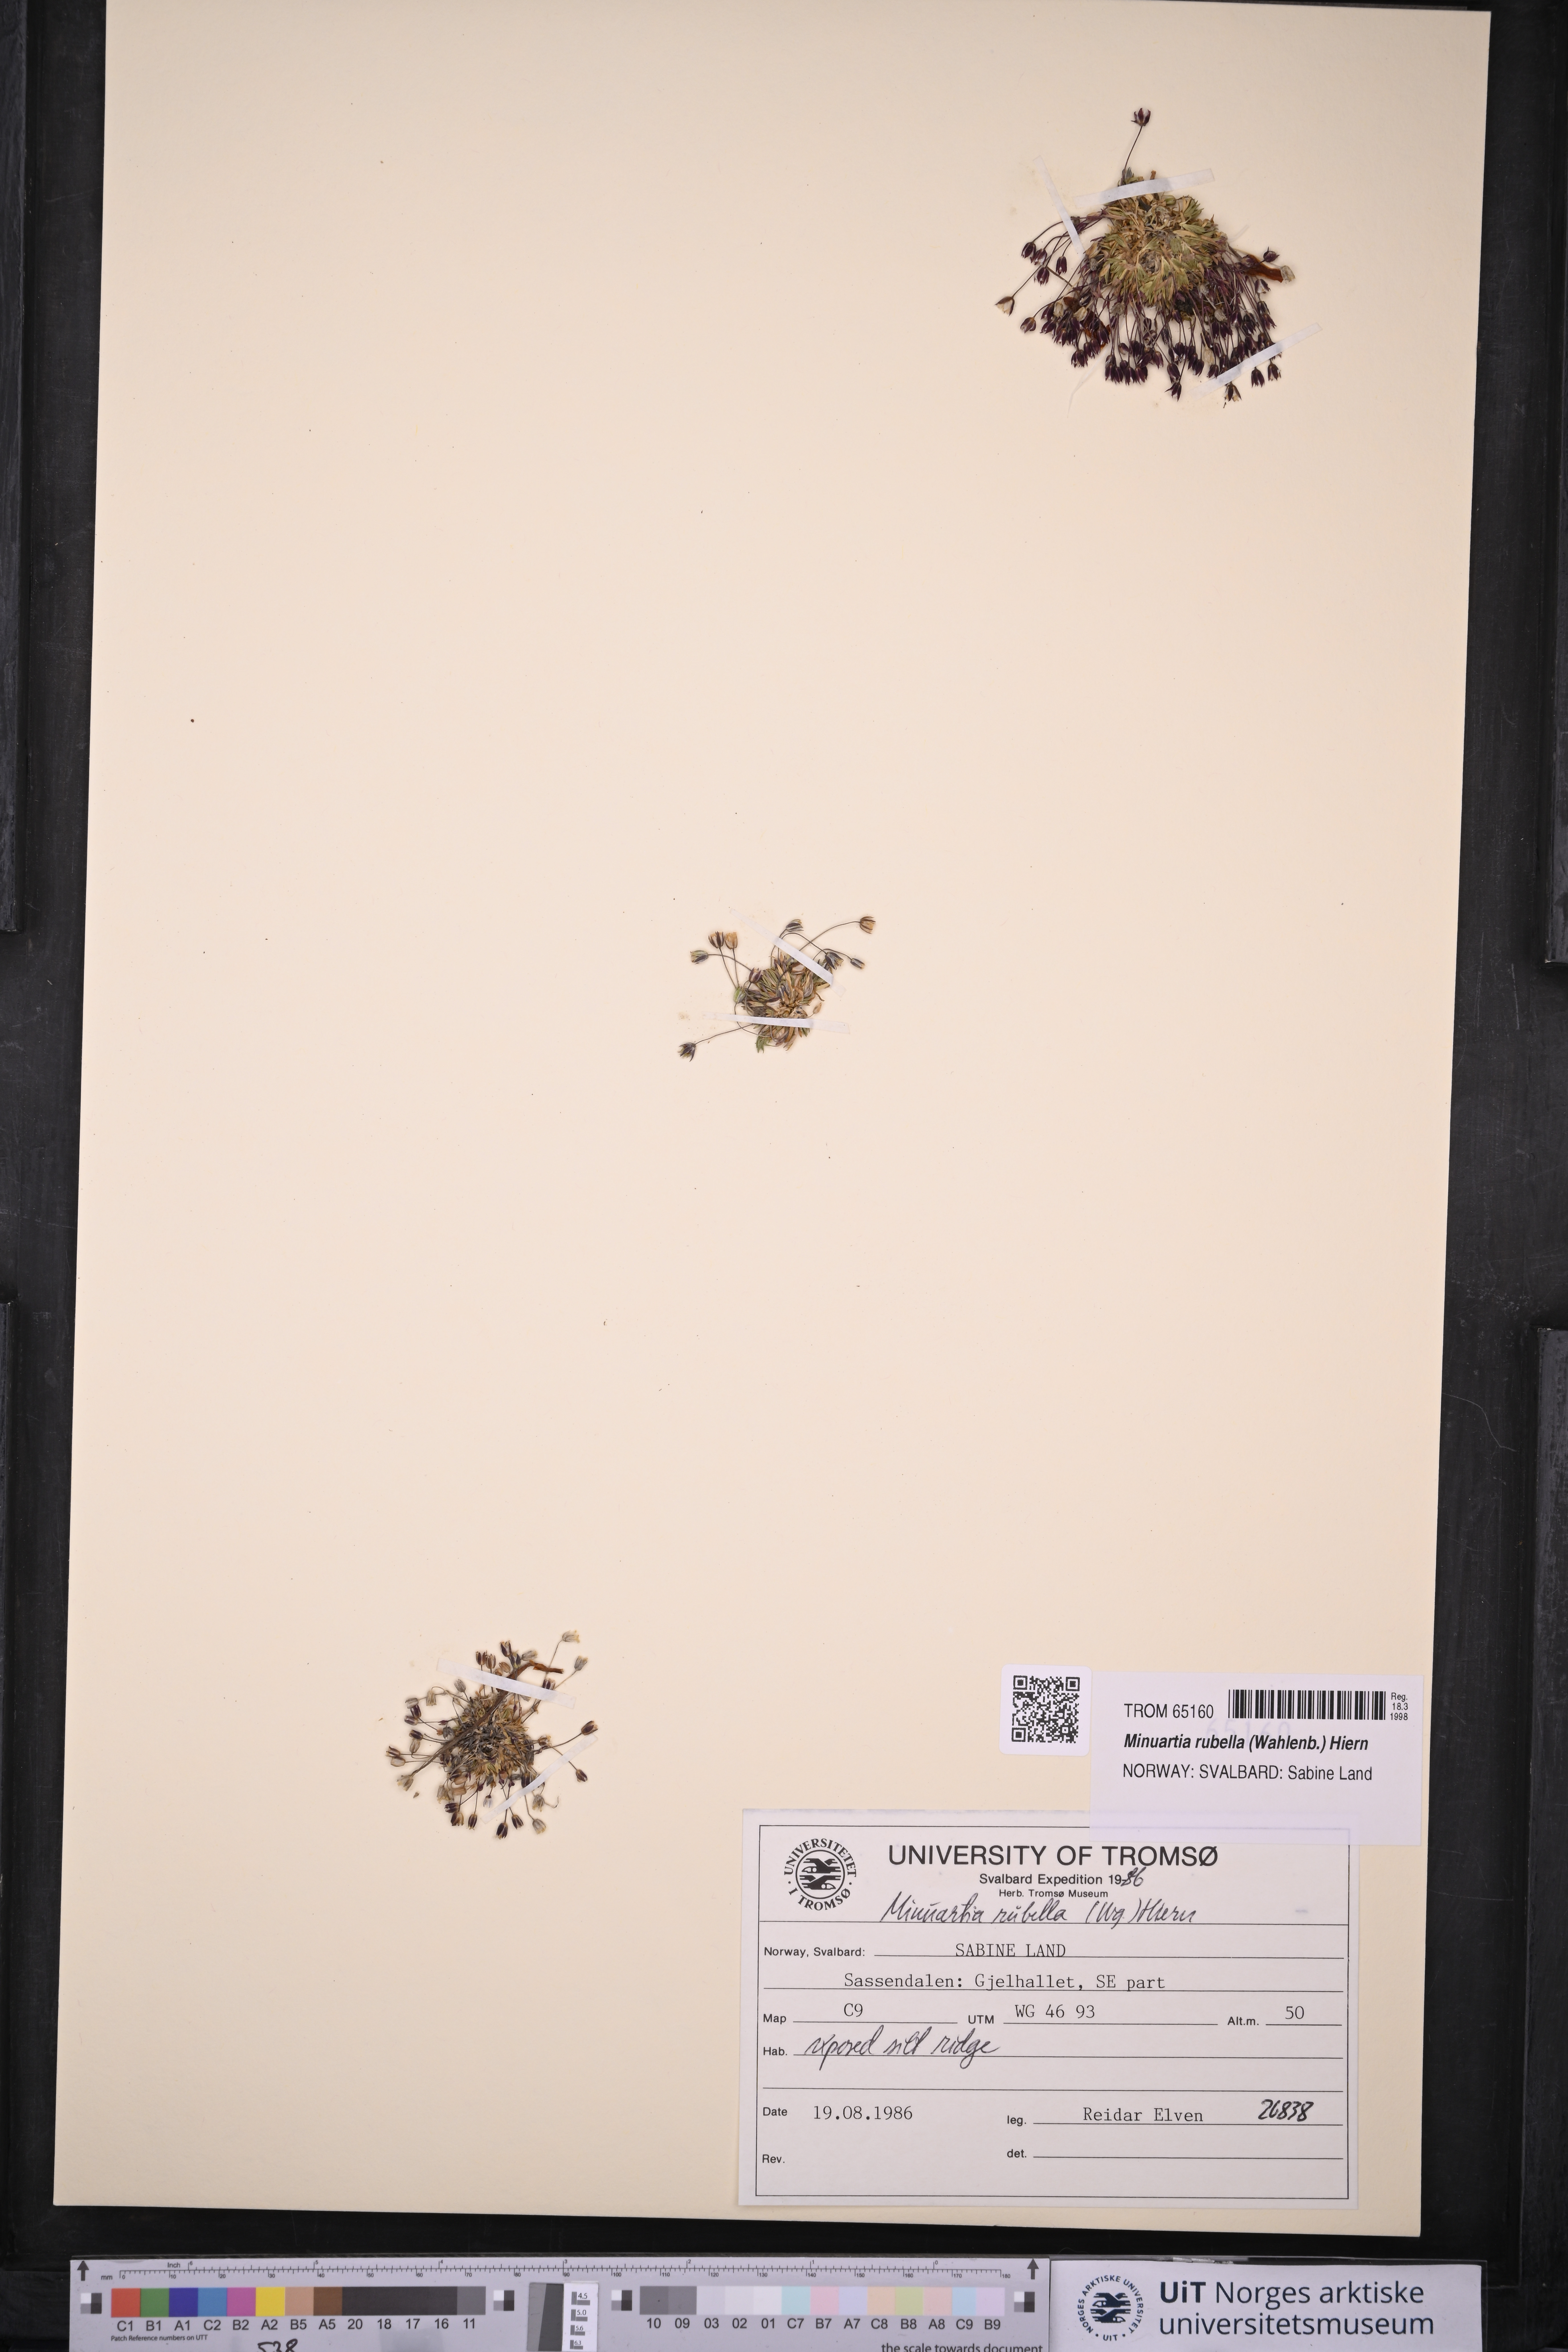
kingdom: Plantae
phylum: Tracheophyta
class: Magnoliopsida
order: Caryophyllales
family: Caryophyllaceae
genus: Sabulina
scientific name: Sabulina rubella
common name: Beautiful sandwort
